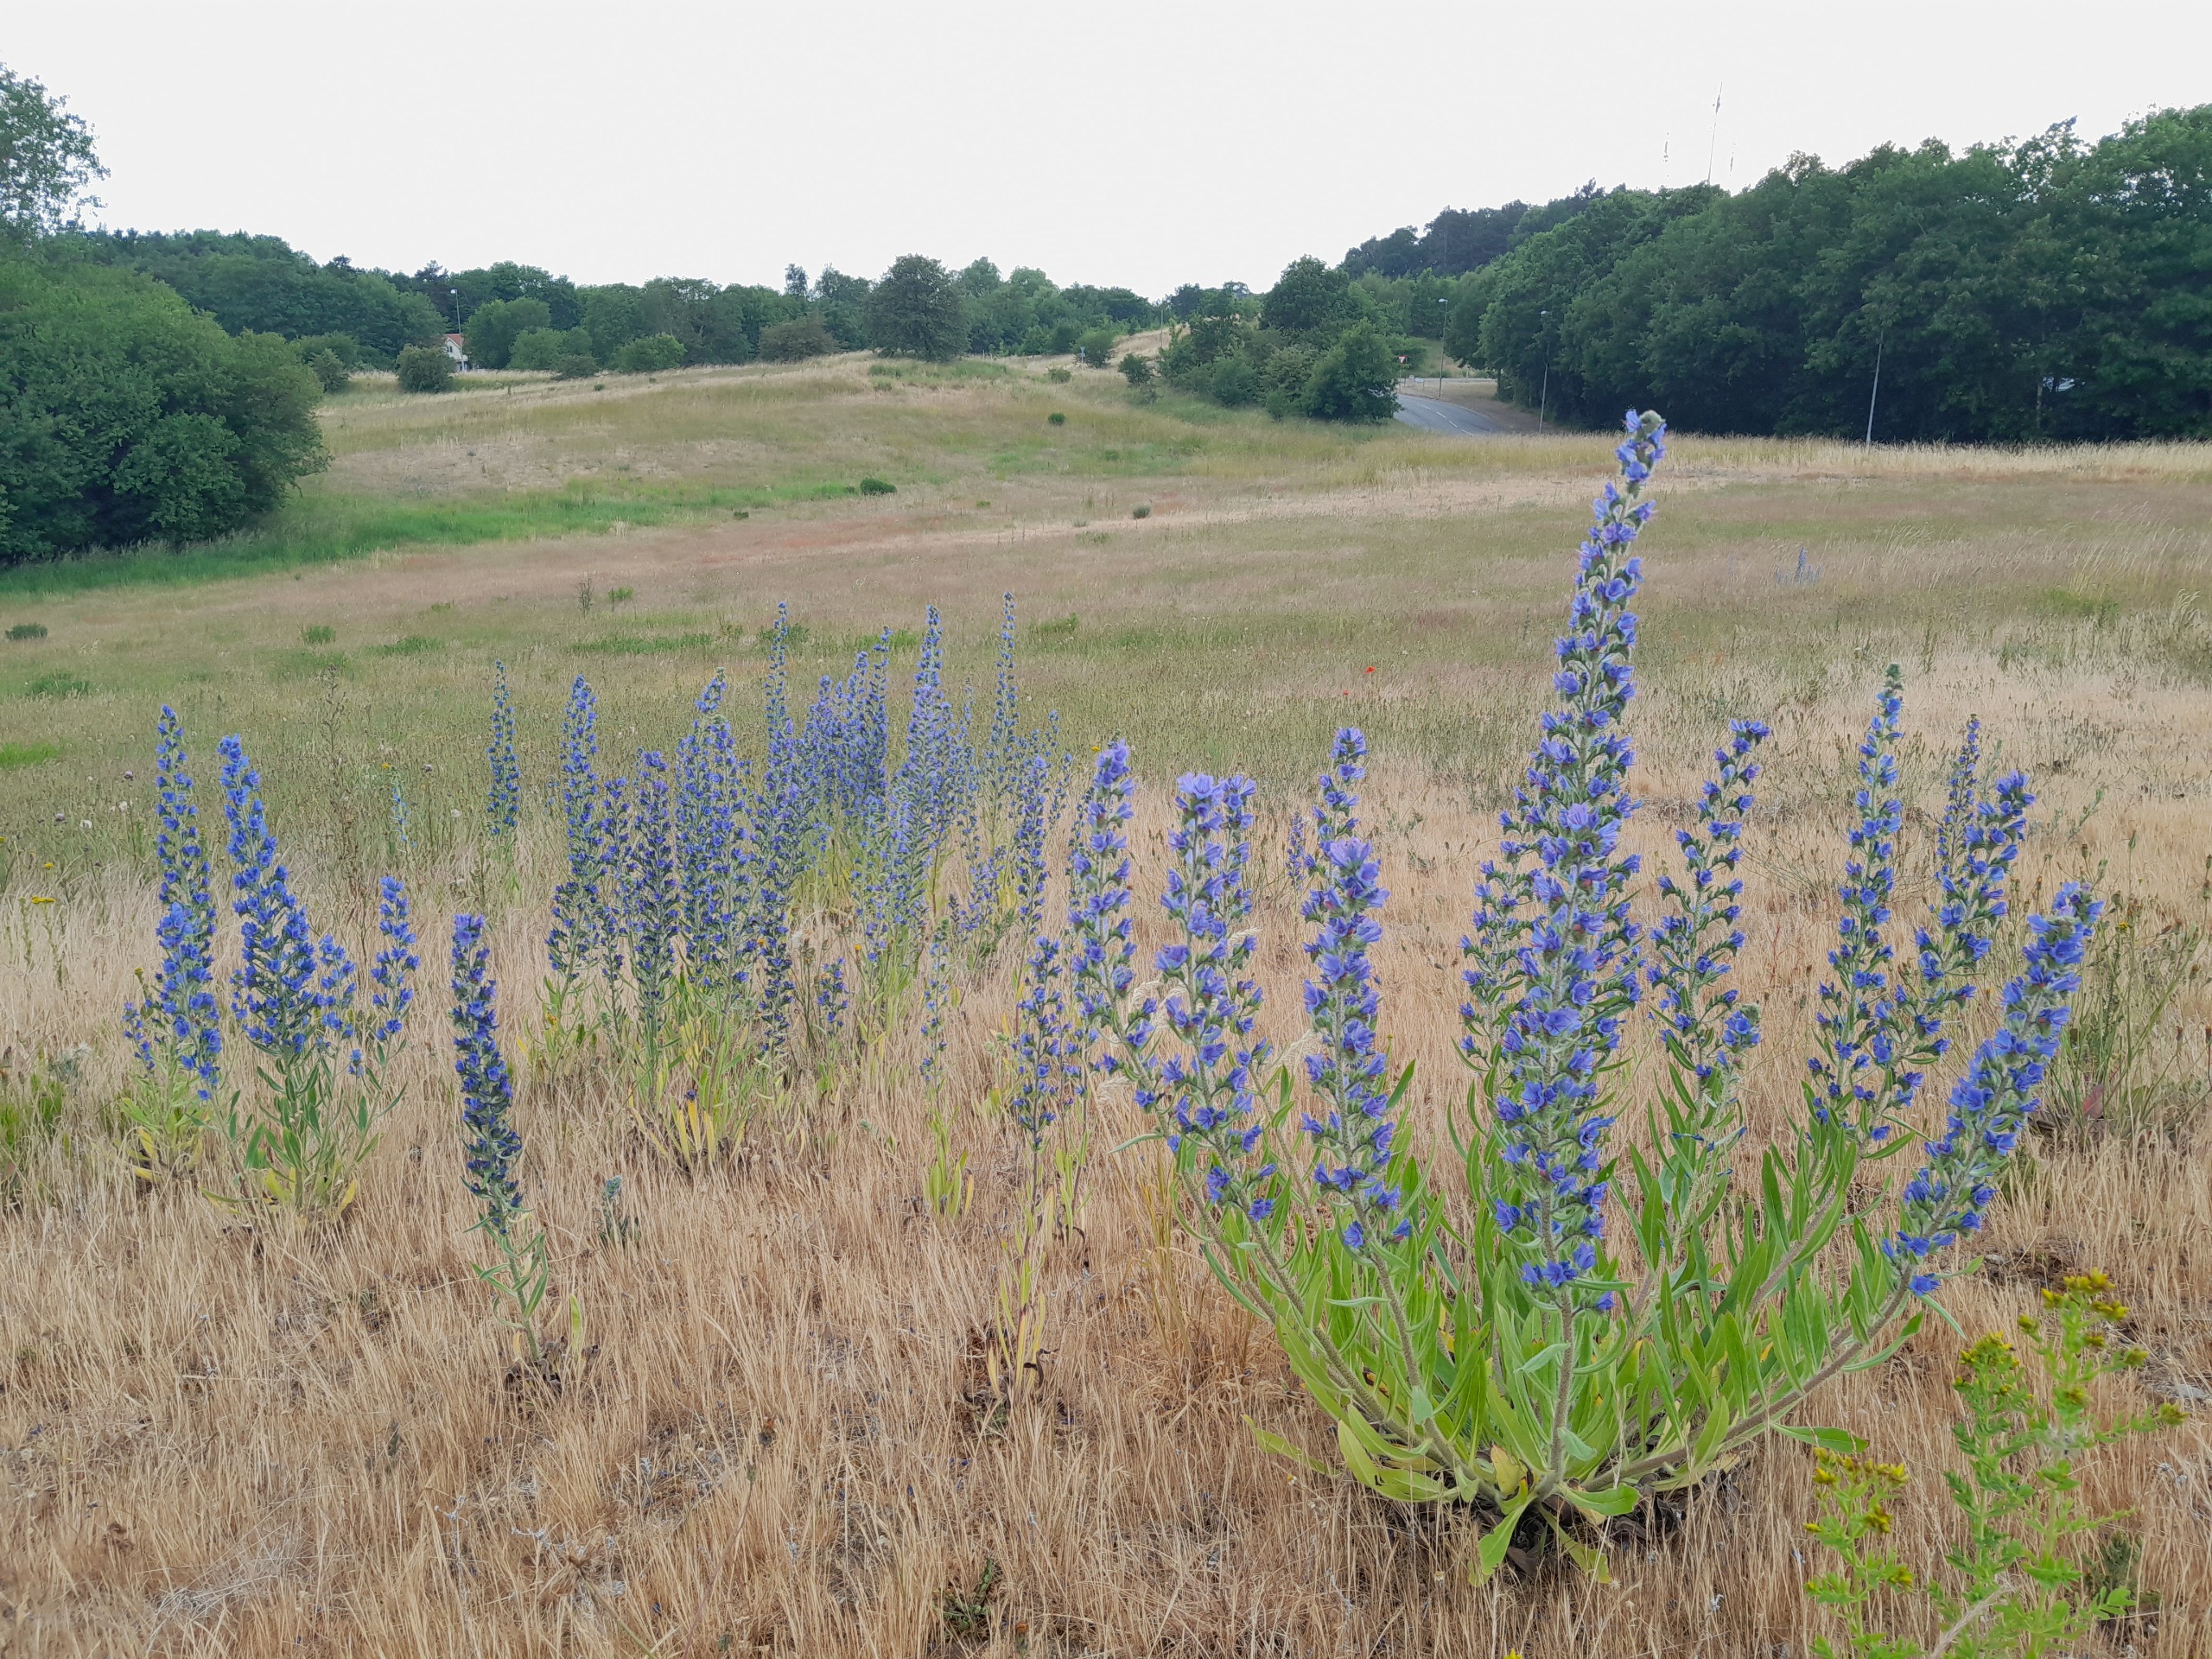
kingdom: Plantae
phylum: Tracheophyta
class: Magnoliopsida
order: Boraginales
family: Boraginaceae
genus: Echium
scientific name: Echium vulgare
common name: Slangehoved
